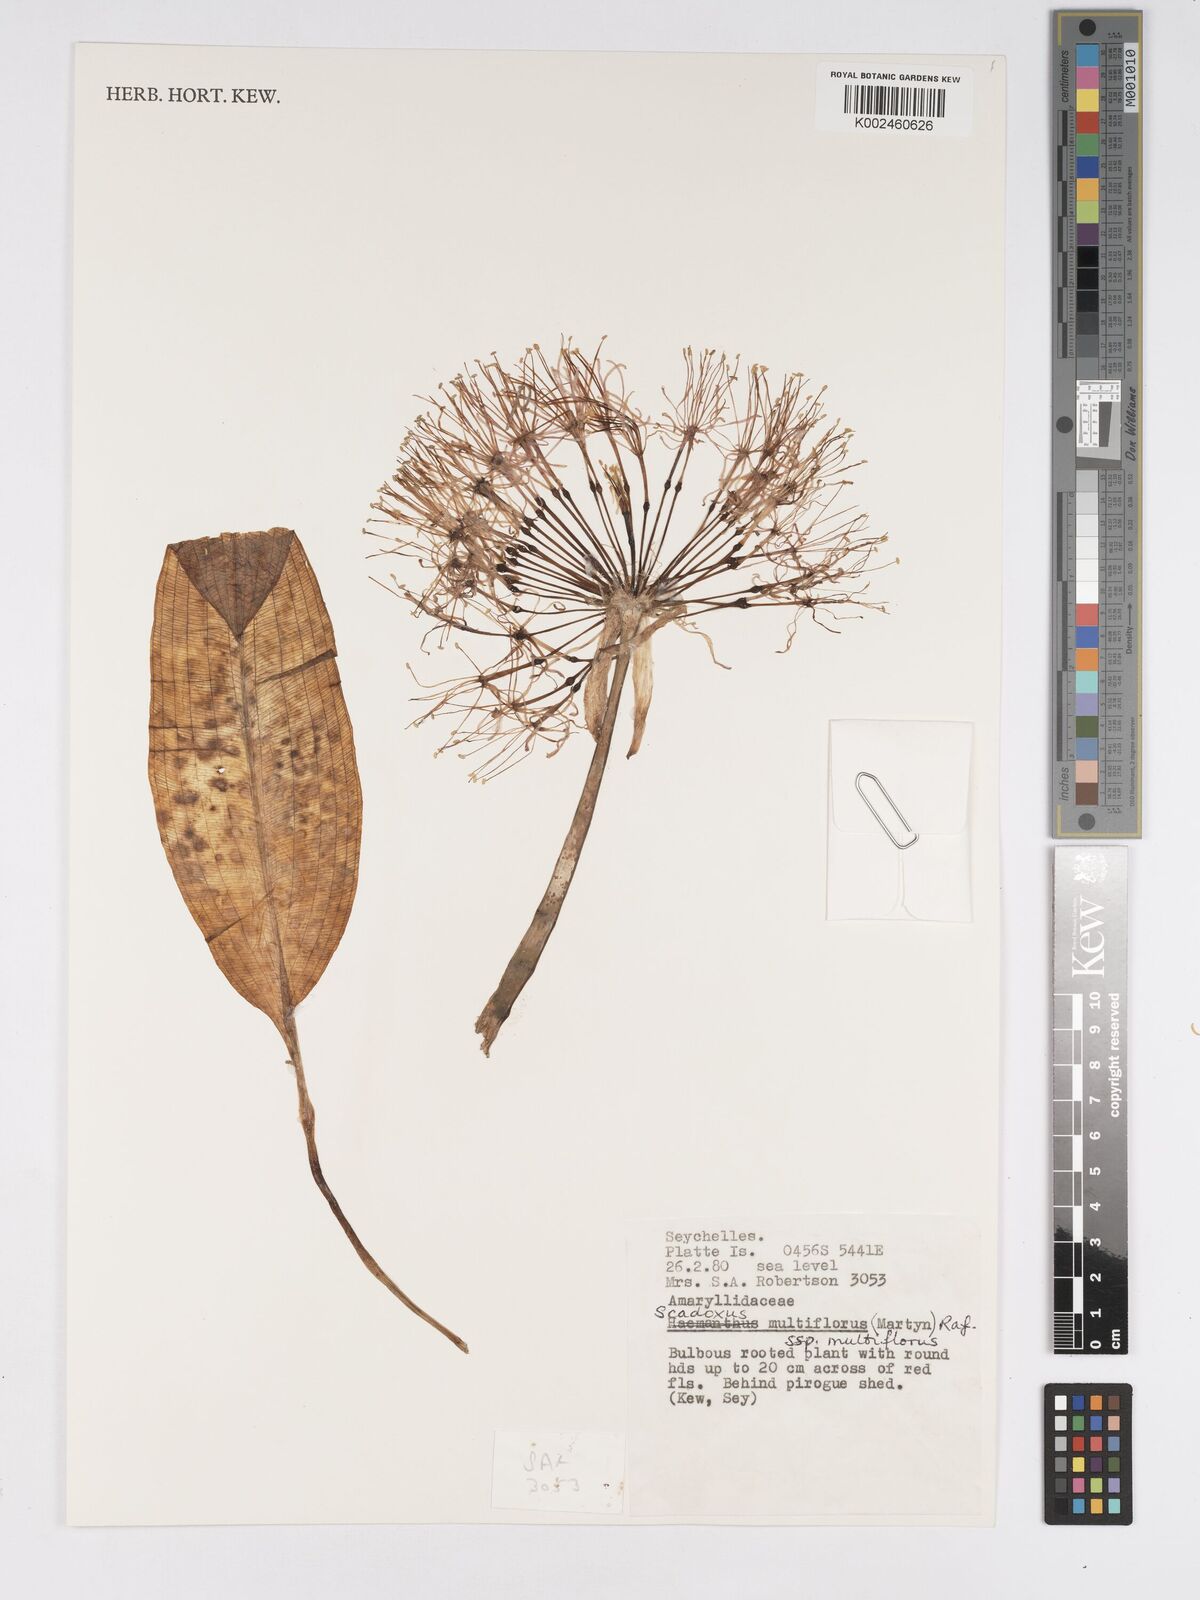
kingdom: Plantae
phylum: Tracheophyta
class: Liliopsida
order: Asparagales
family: Amaryllidaceae
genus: Scadoxus
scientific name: Scadoxus multiflorus
